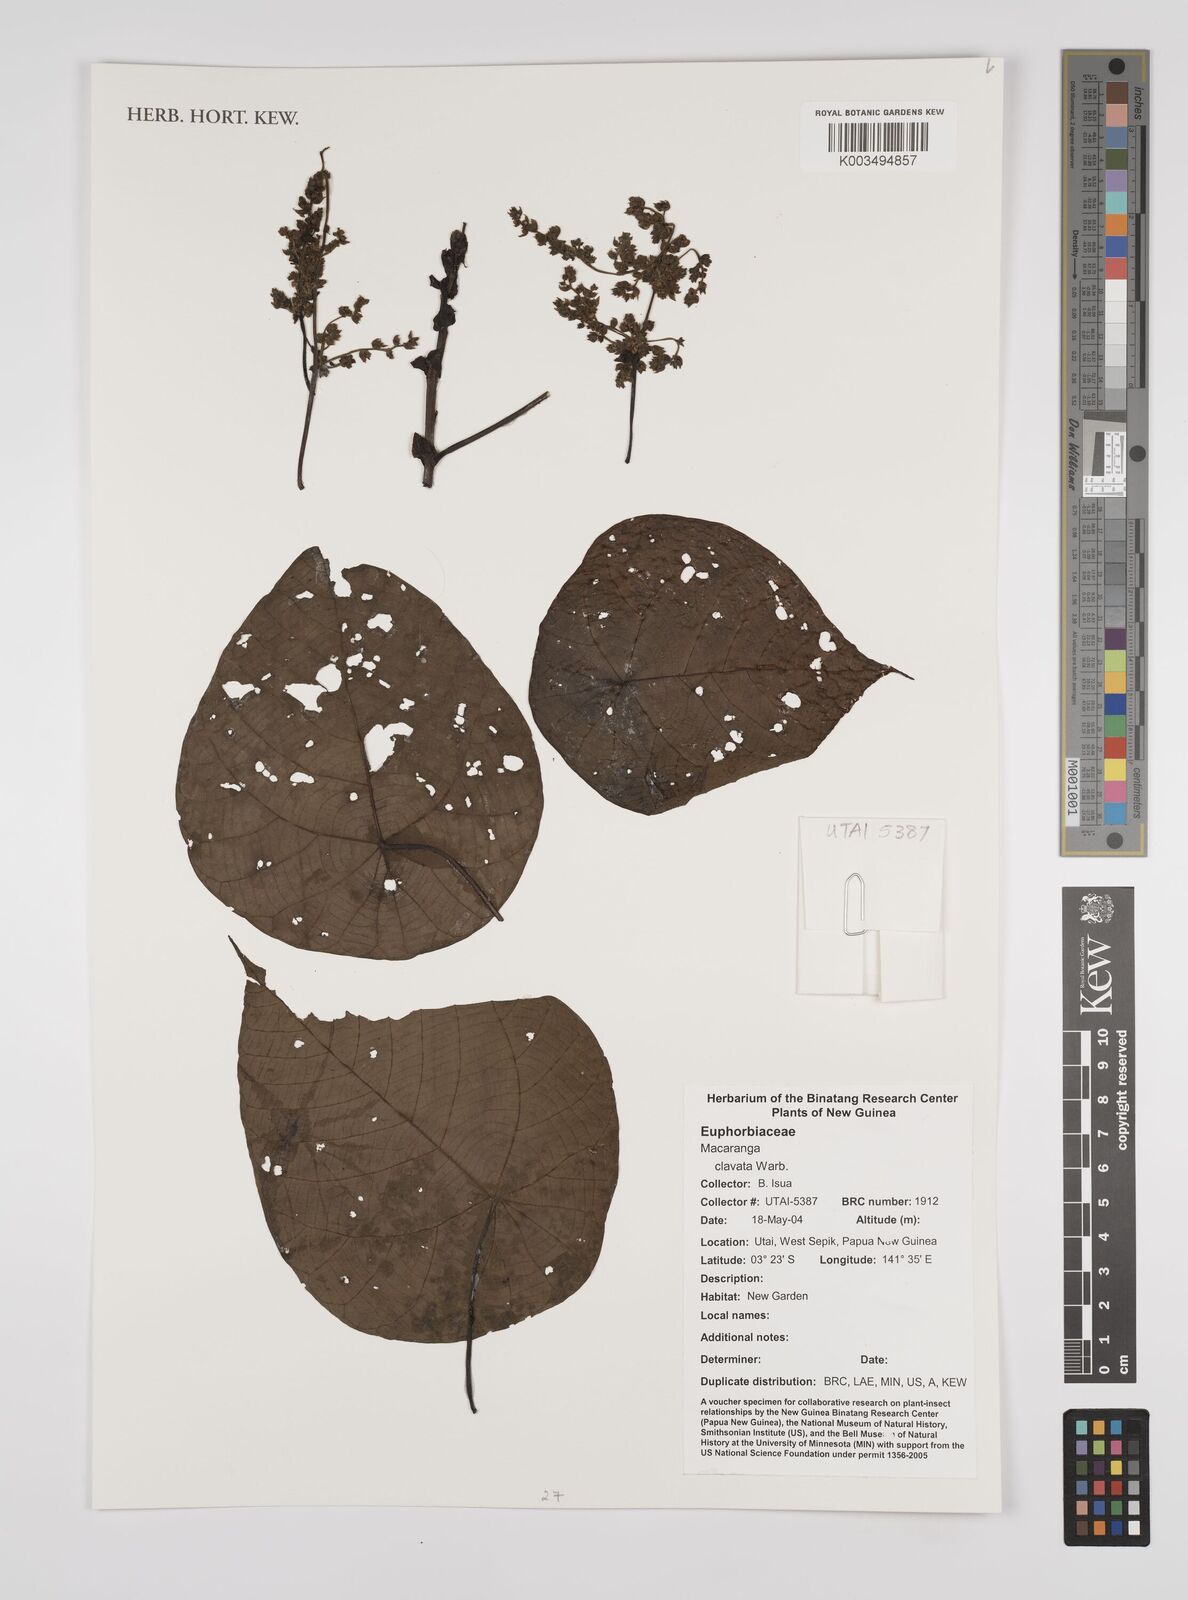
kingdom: Plantae
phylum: Tracheophyta
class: Magnoliopsida
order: Malpighiales
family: Euphorbiaceae
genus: Macaranga
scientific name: Macaranga clavata
